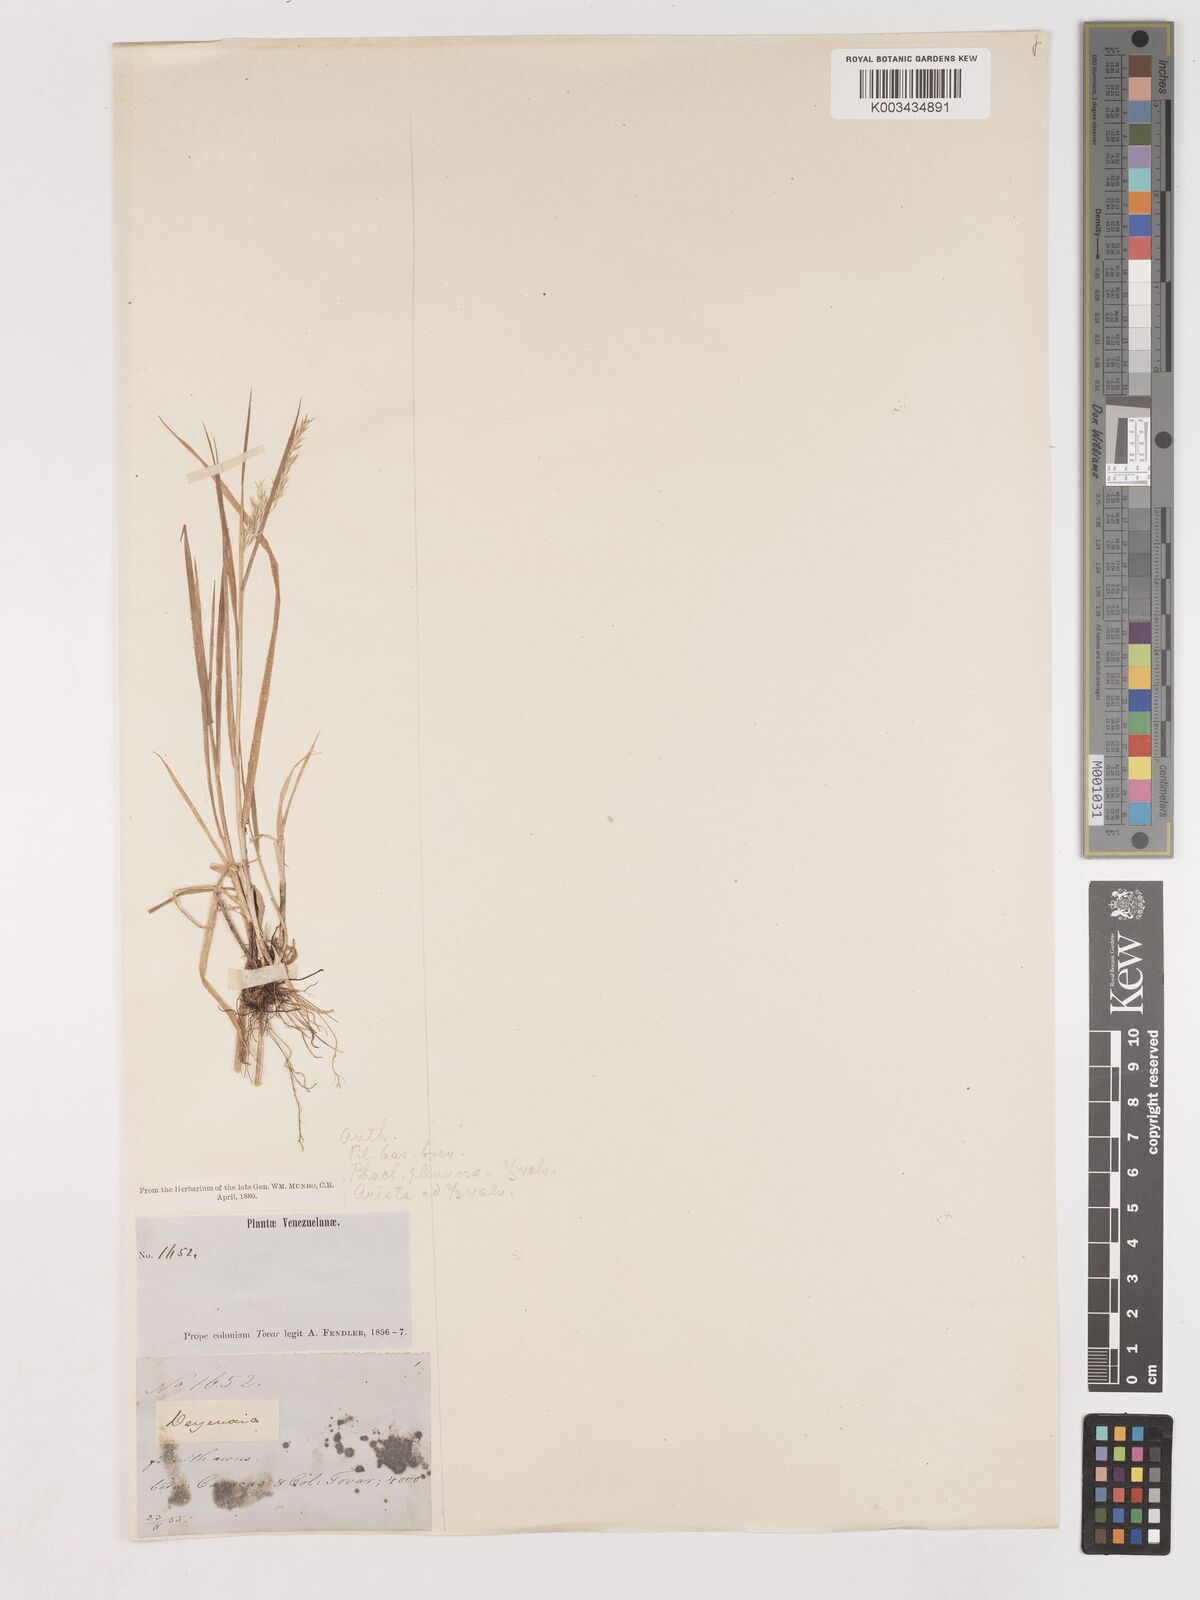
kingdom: Plantae
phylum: Tracheophyta
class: Liliopsida
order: Poales
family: Poaceae
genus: Cinnagrostis
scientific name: Cinnagrostis recta
